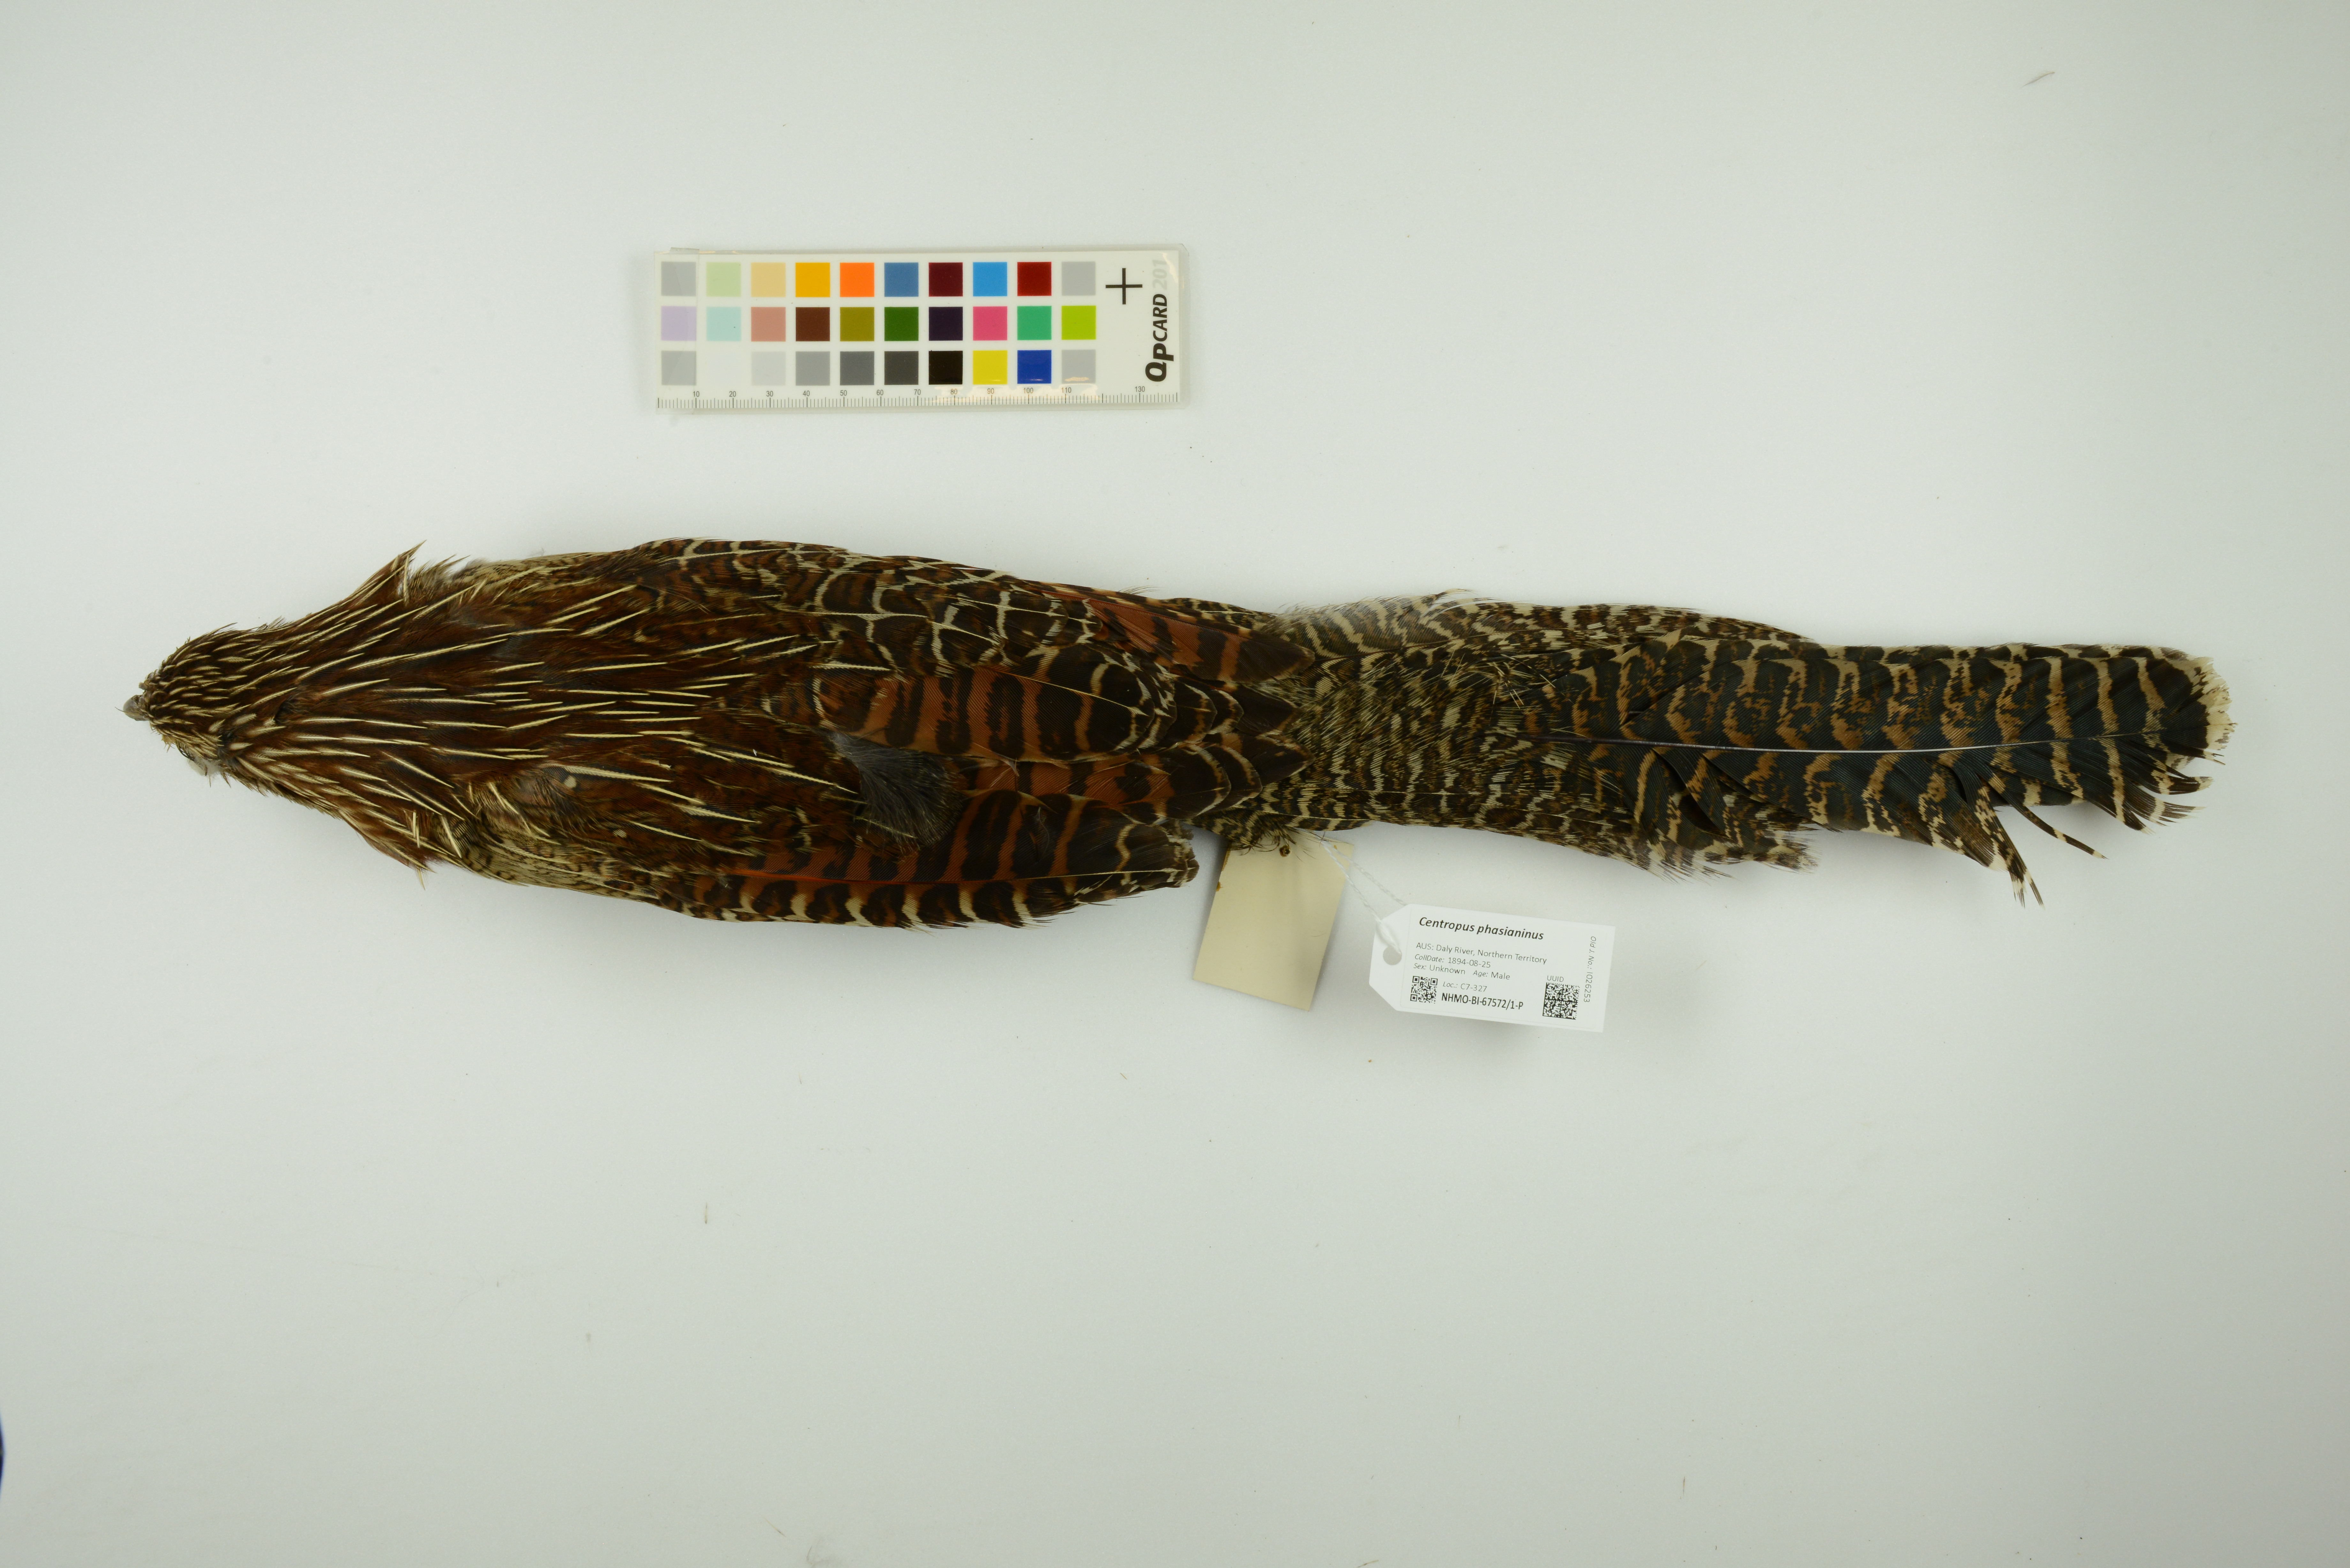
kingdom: Animalia
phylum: Chordata
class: Aves
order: Cuculiformes
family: Cuculidae
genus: Centropus
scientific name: Centropus phasianinus
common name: Pheasant coucal
